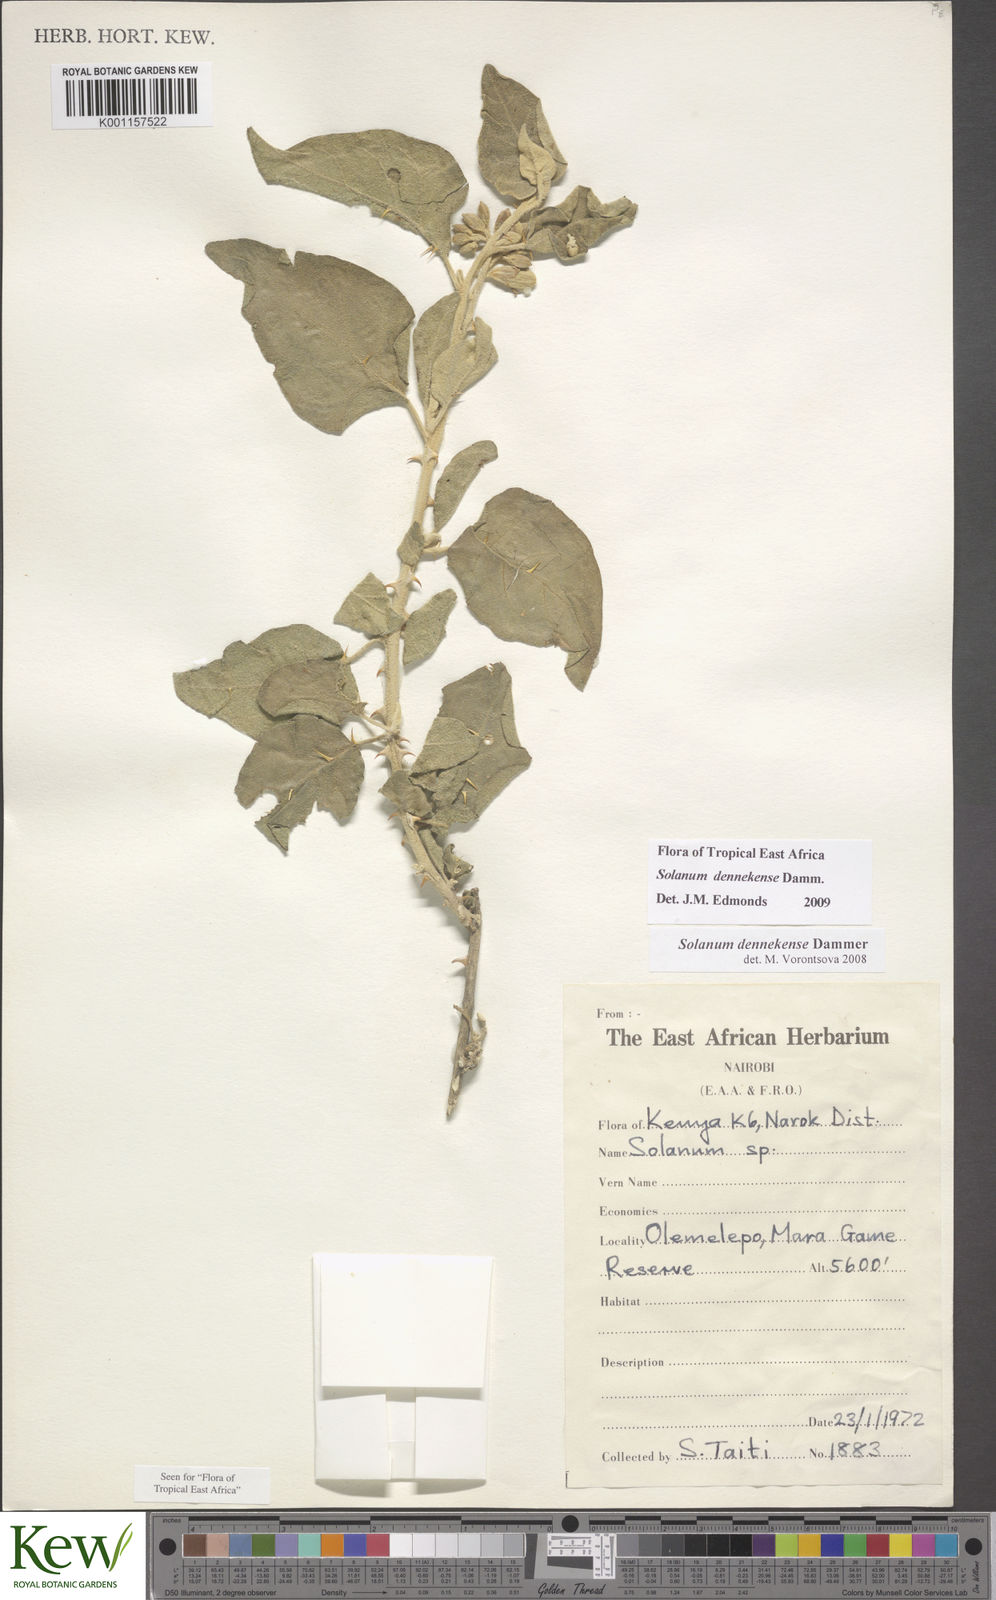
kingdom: Plantae
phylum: Tracheophyta
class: Magnoliopsida
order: Solanales
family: Solanaceae
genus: Solanum
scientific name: Solanum dennekense
